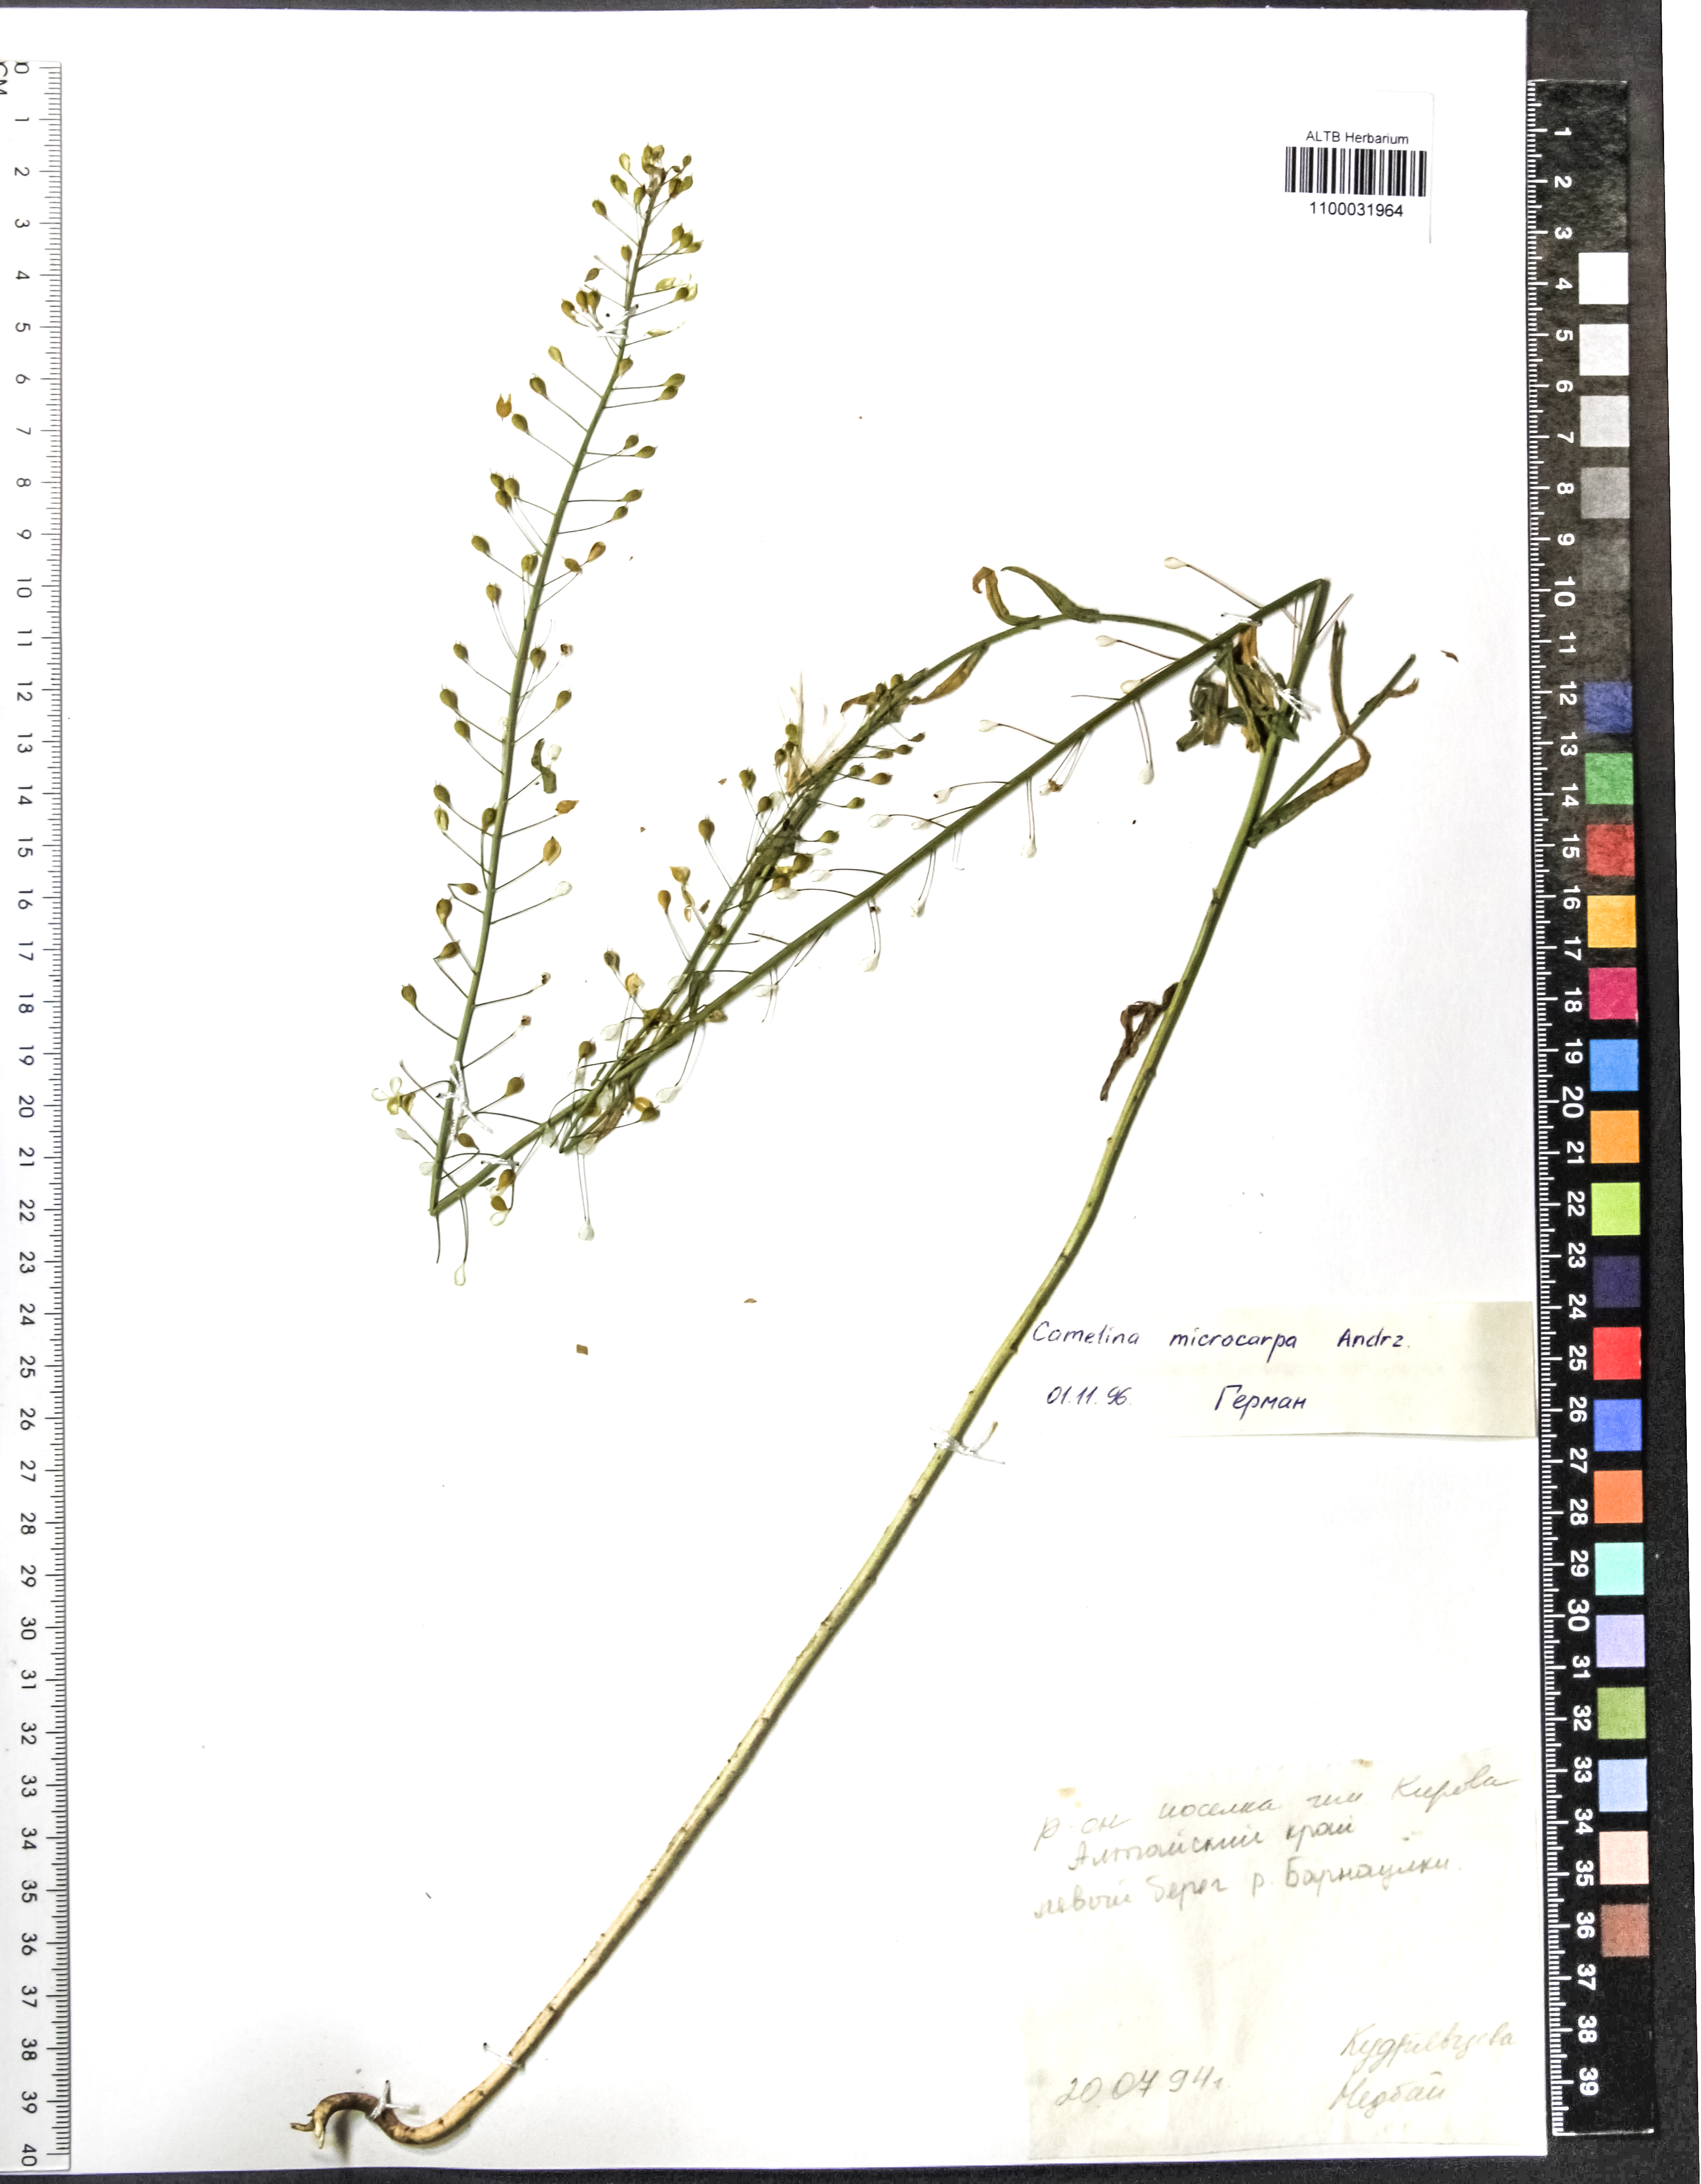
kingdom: Plantae
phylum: Tracheophyta
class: Magnoliopsida
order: Brassicales
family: Brassicaceae
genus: Camelina
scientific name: Camelina microcarpa
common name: Lesser gold-of-pleasure
